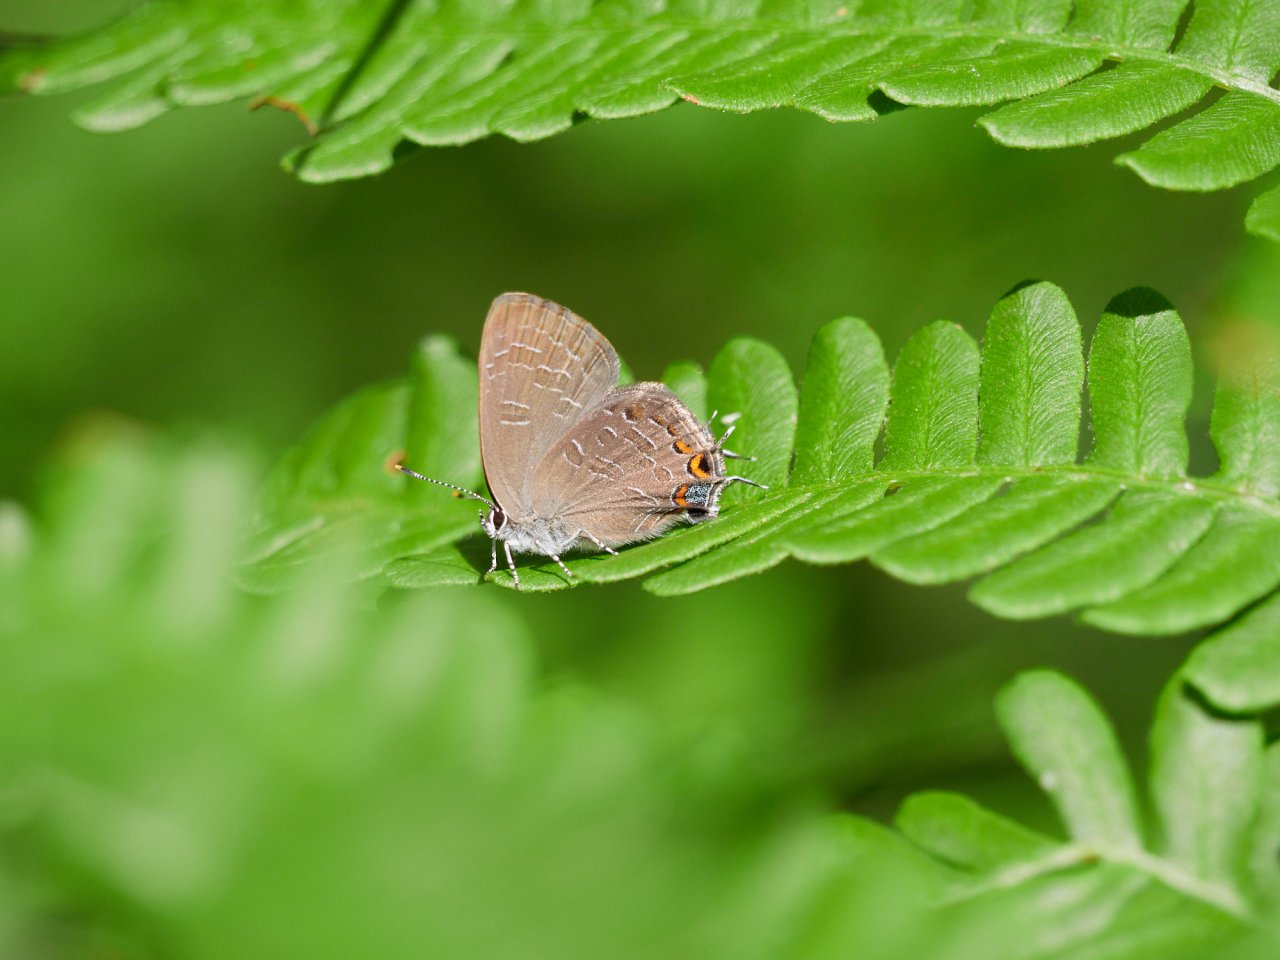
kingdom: Animalia
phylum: Arthropoda
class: Insecta
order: Lepidoptera
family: Lycaenidae
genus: Satyrium
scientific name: Satyrium liparops
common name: Striped Hairstreak
